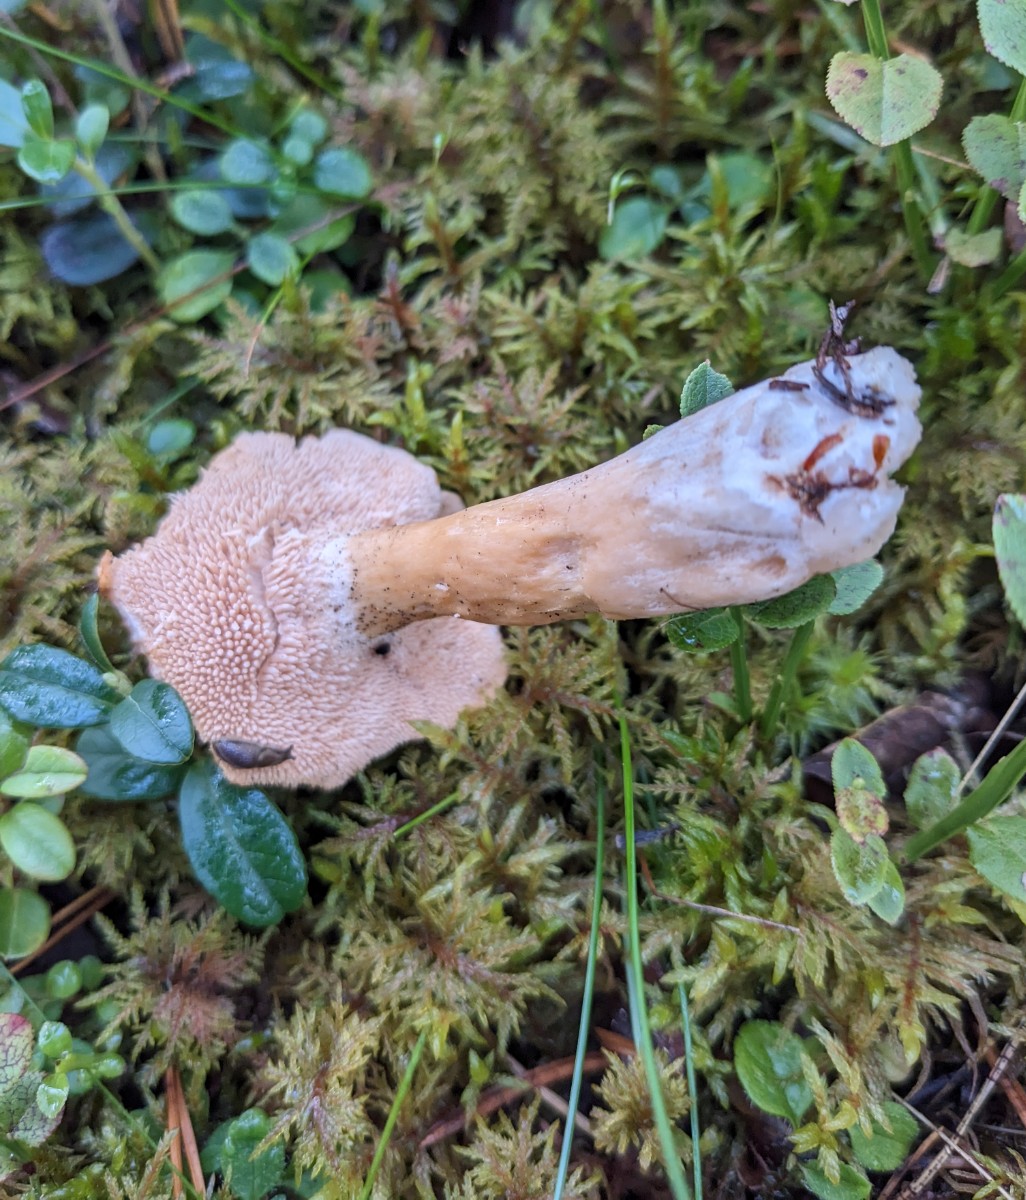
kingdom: Fungi
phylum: Basidiomycota
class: Agaricomycetes
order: Cantharellales
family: Hydnaceae
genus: Hydnum
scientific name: Hydnum mulsicolor
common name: mjødfarvet pigsvamp
